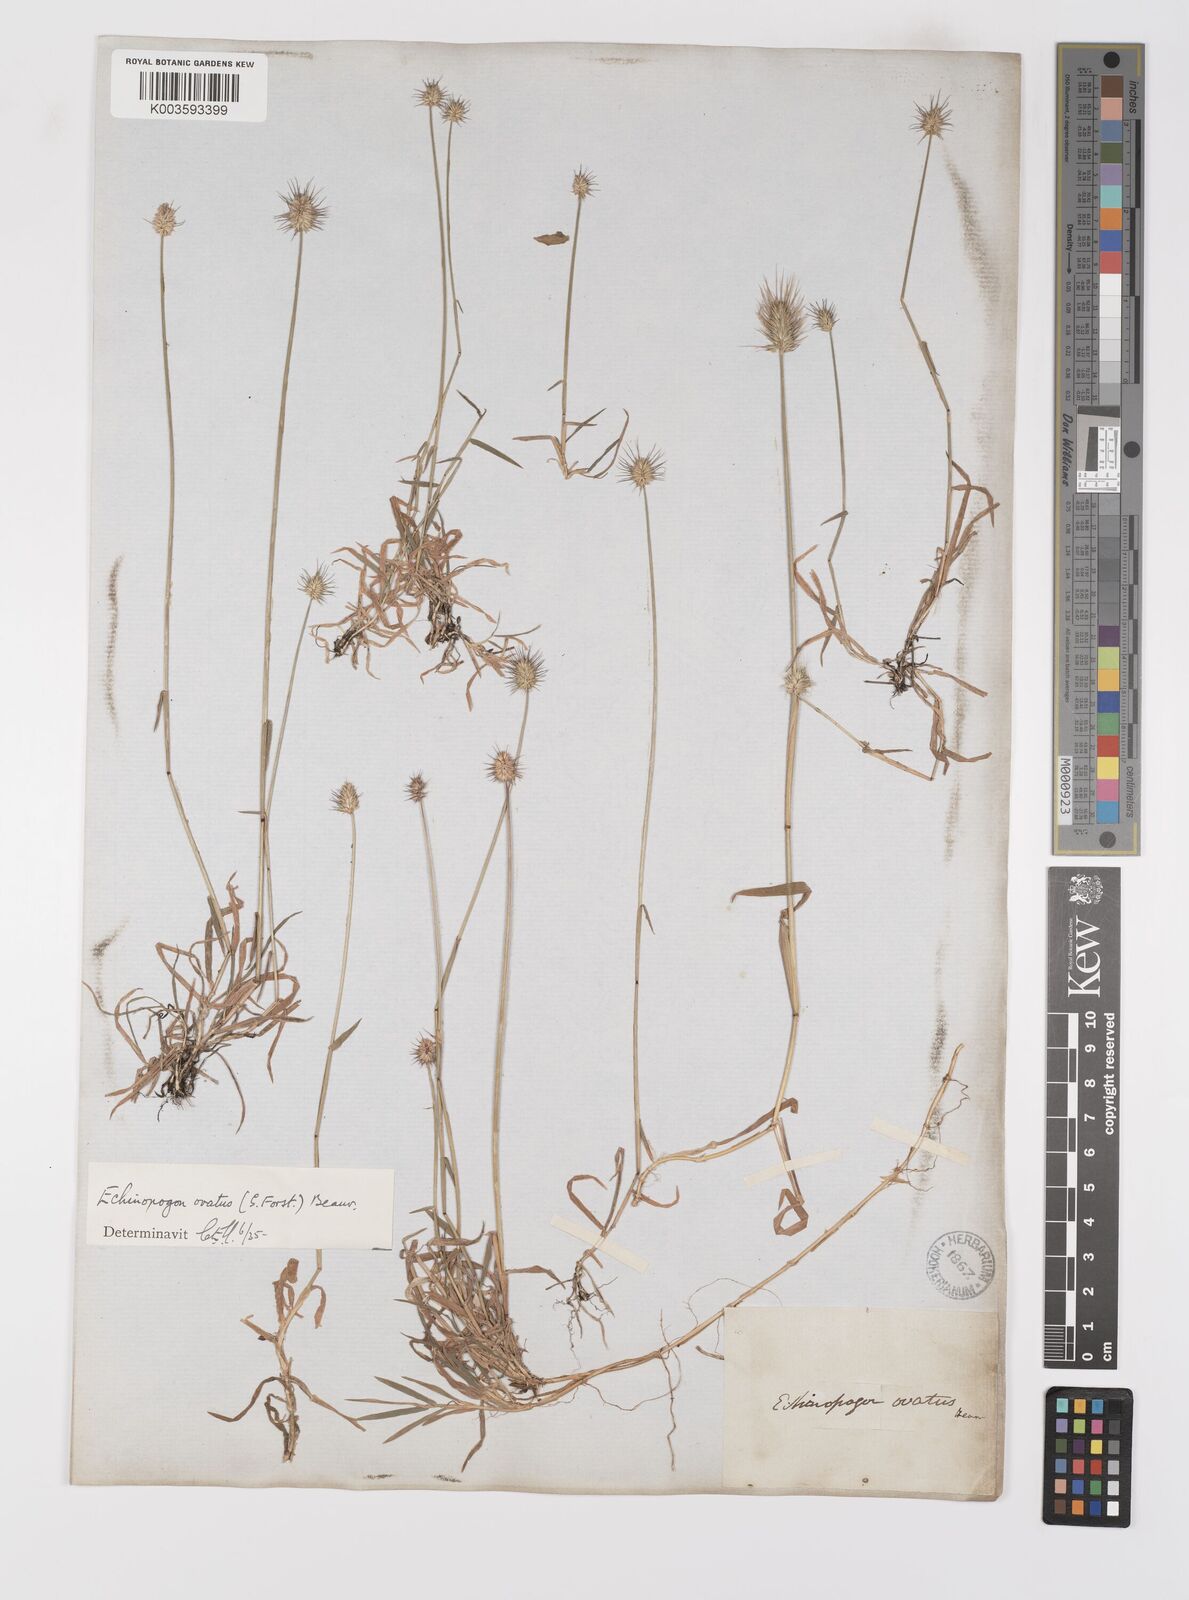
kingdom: Plantae
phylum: Tracheophyta
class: Liliopsida
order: Poales
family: Poaceae
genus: Echinopogon
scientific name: Echinopogon ovatus
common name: Hedgehog-grass
